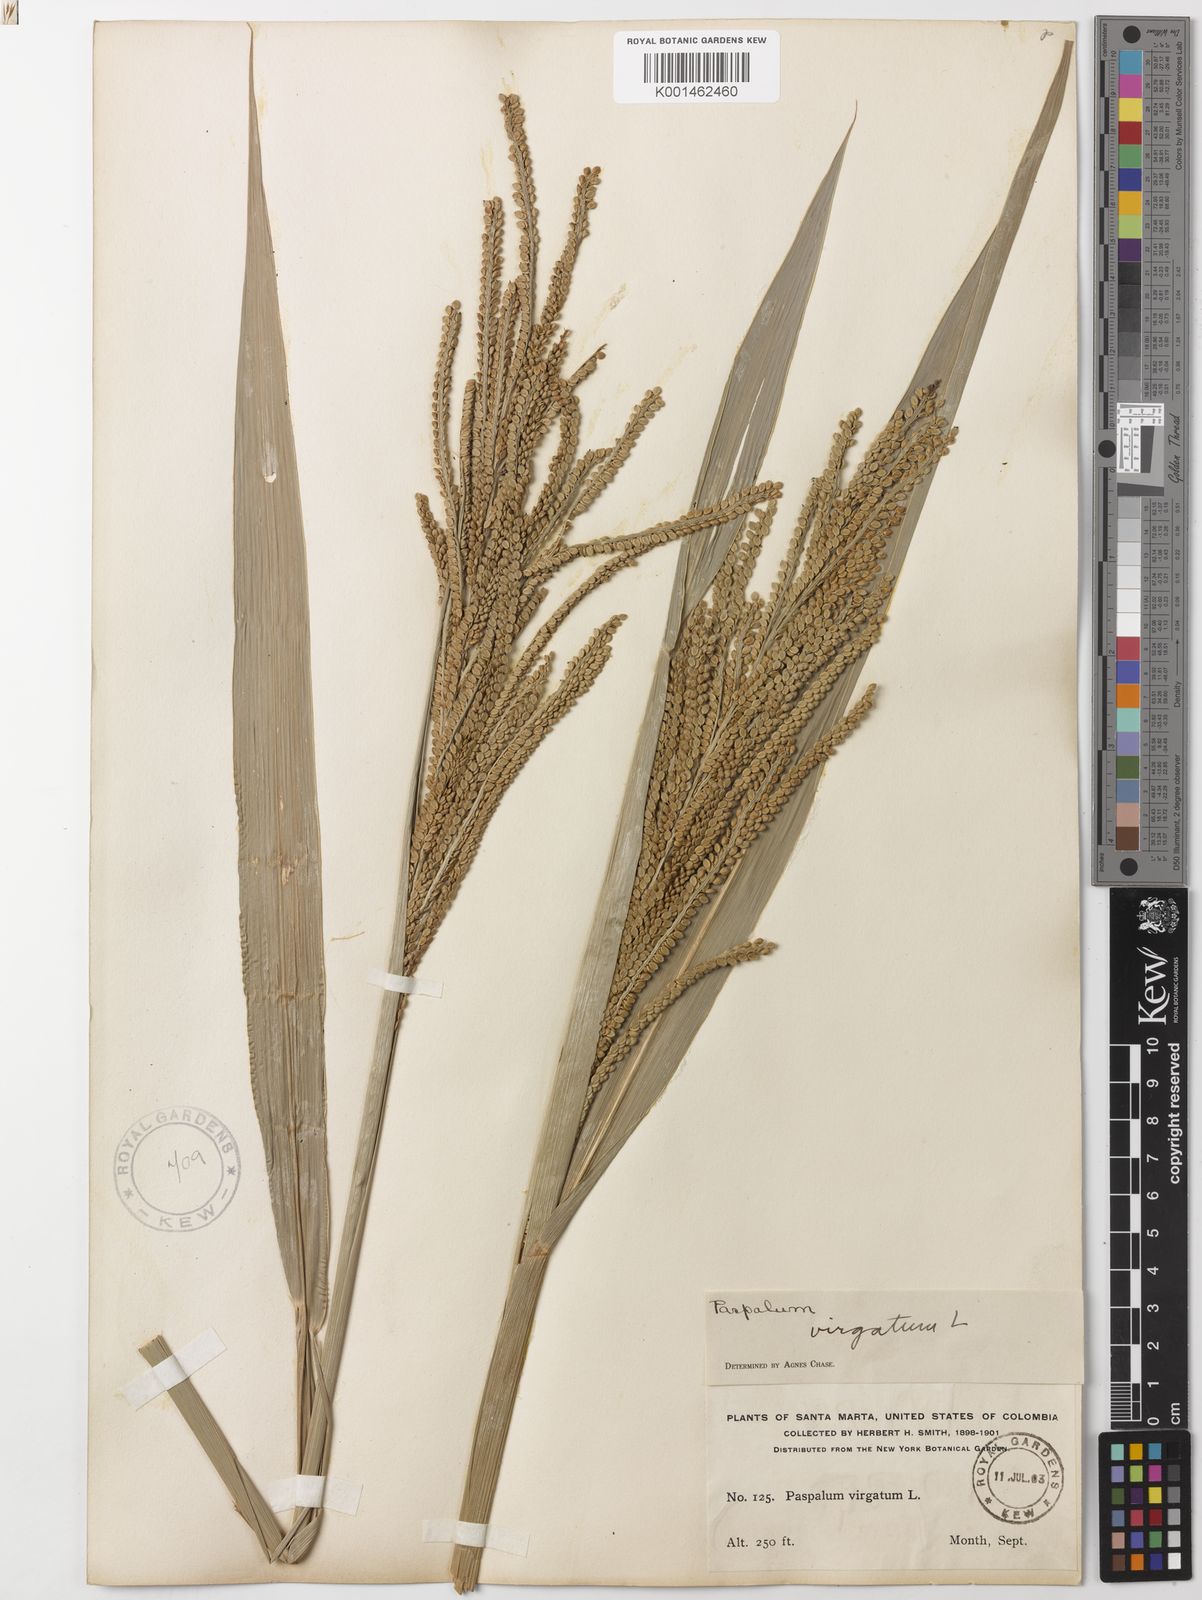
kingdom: Plantae
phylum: Tracheophyta
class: Liliopsida
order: Poales
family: Poaceae
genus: Paspalum
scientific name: Paspalum virgatum
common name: Talquezal
